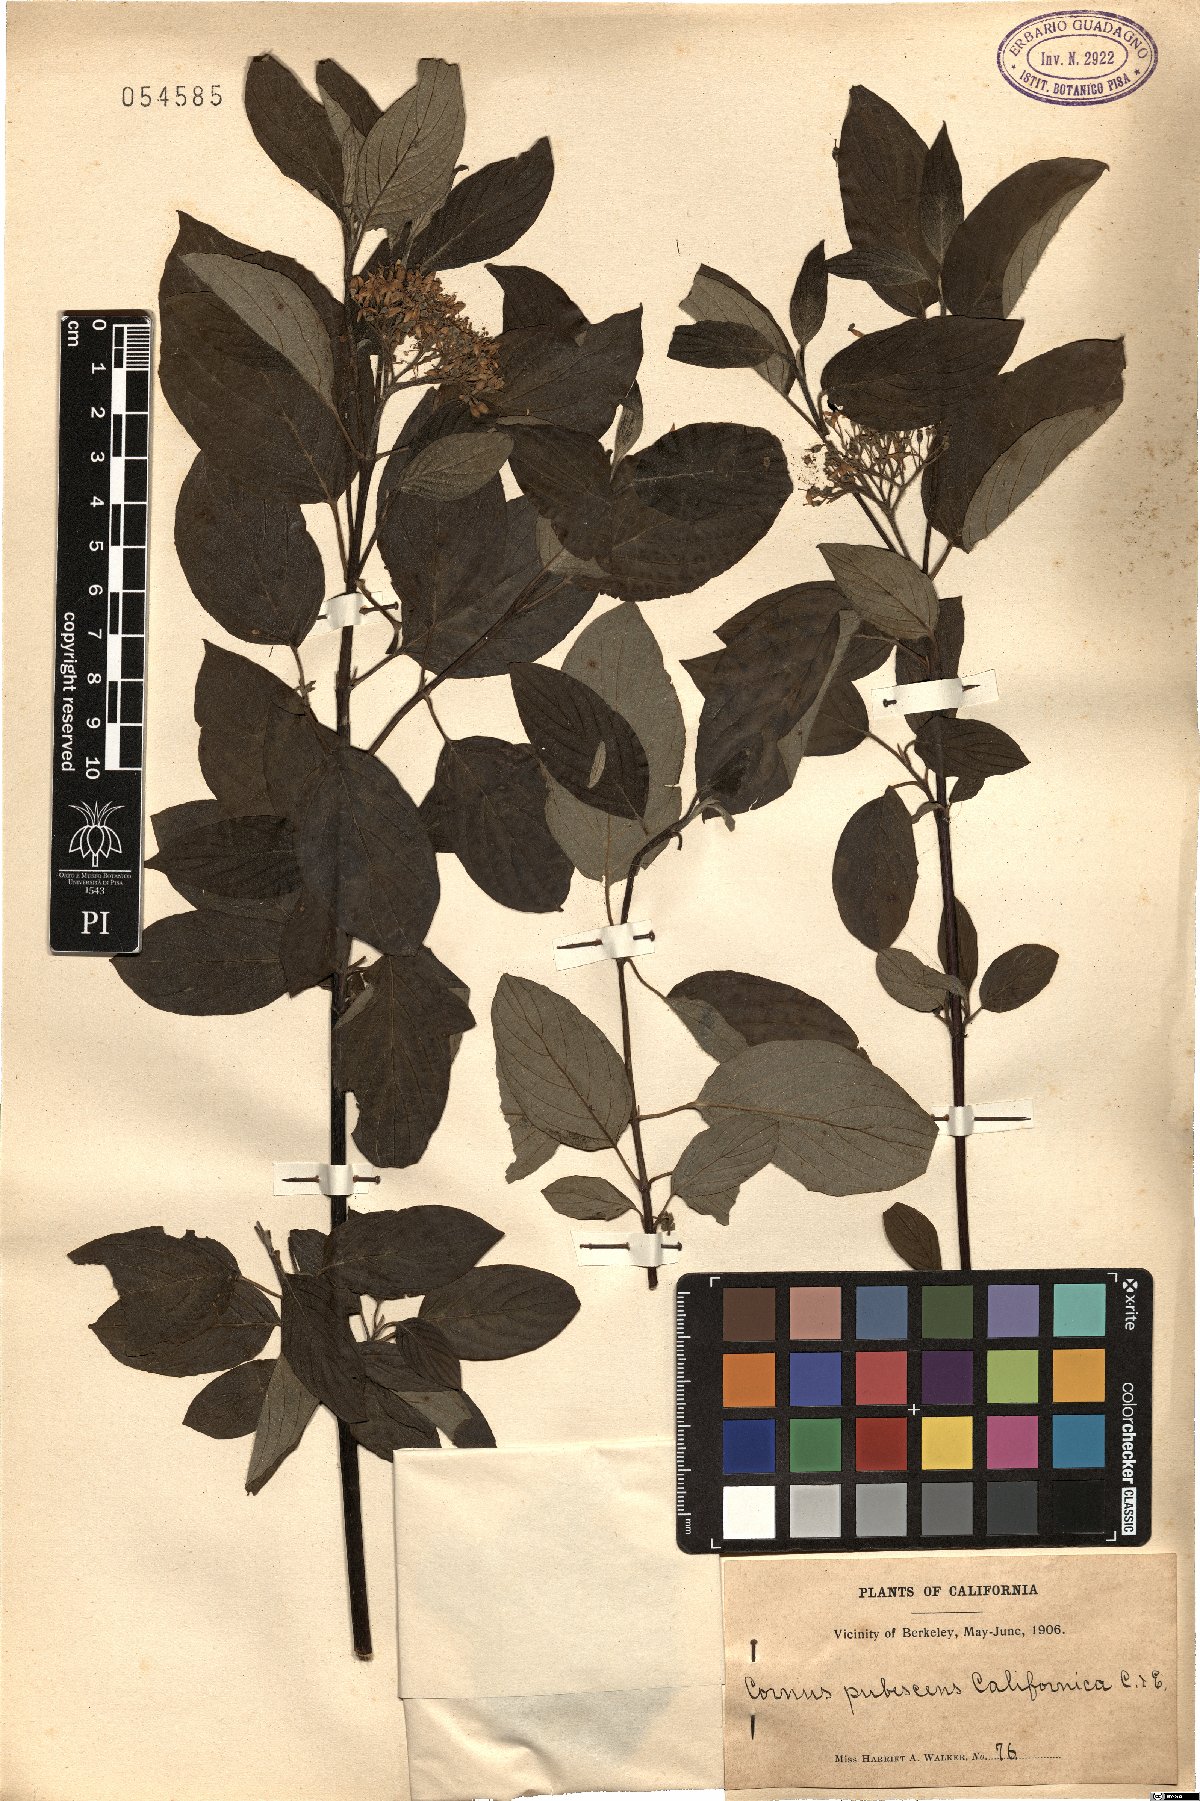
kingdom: Plantae
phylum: Tracheophyta
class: Magnoliopsida
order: Cornales
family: Cornaceae
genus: Cornus
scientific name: Cornus torreyi
